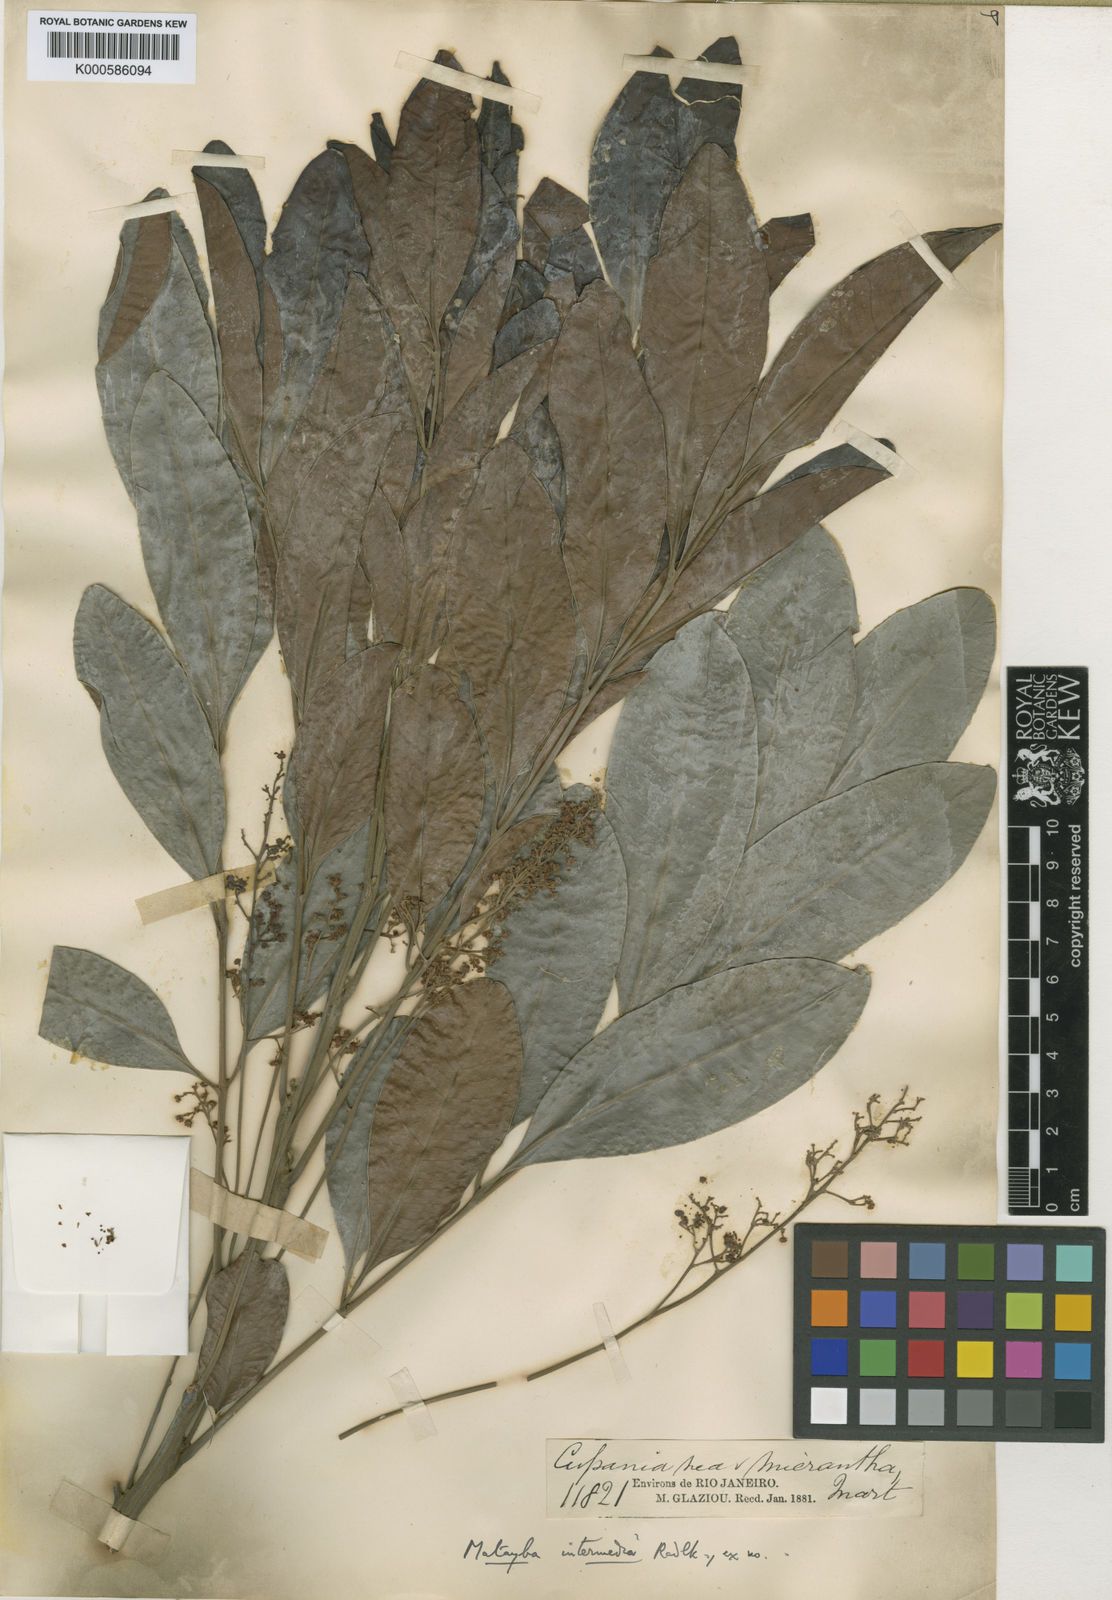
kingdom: Plantae
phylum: Tracheophyta
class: Magnoliopsida
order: Sapindales
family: Sapindaceae
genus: Matayba
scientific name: Matayba intermedia
